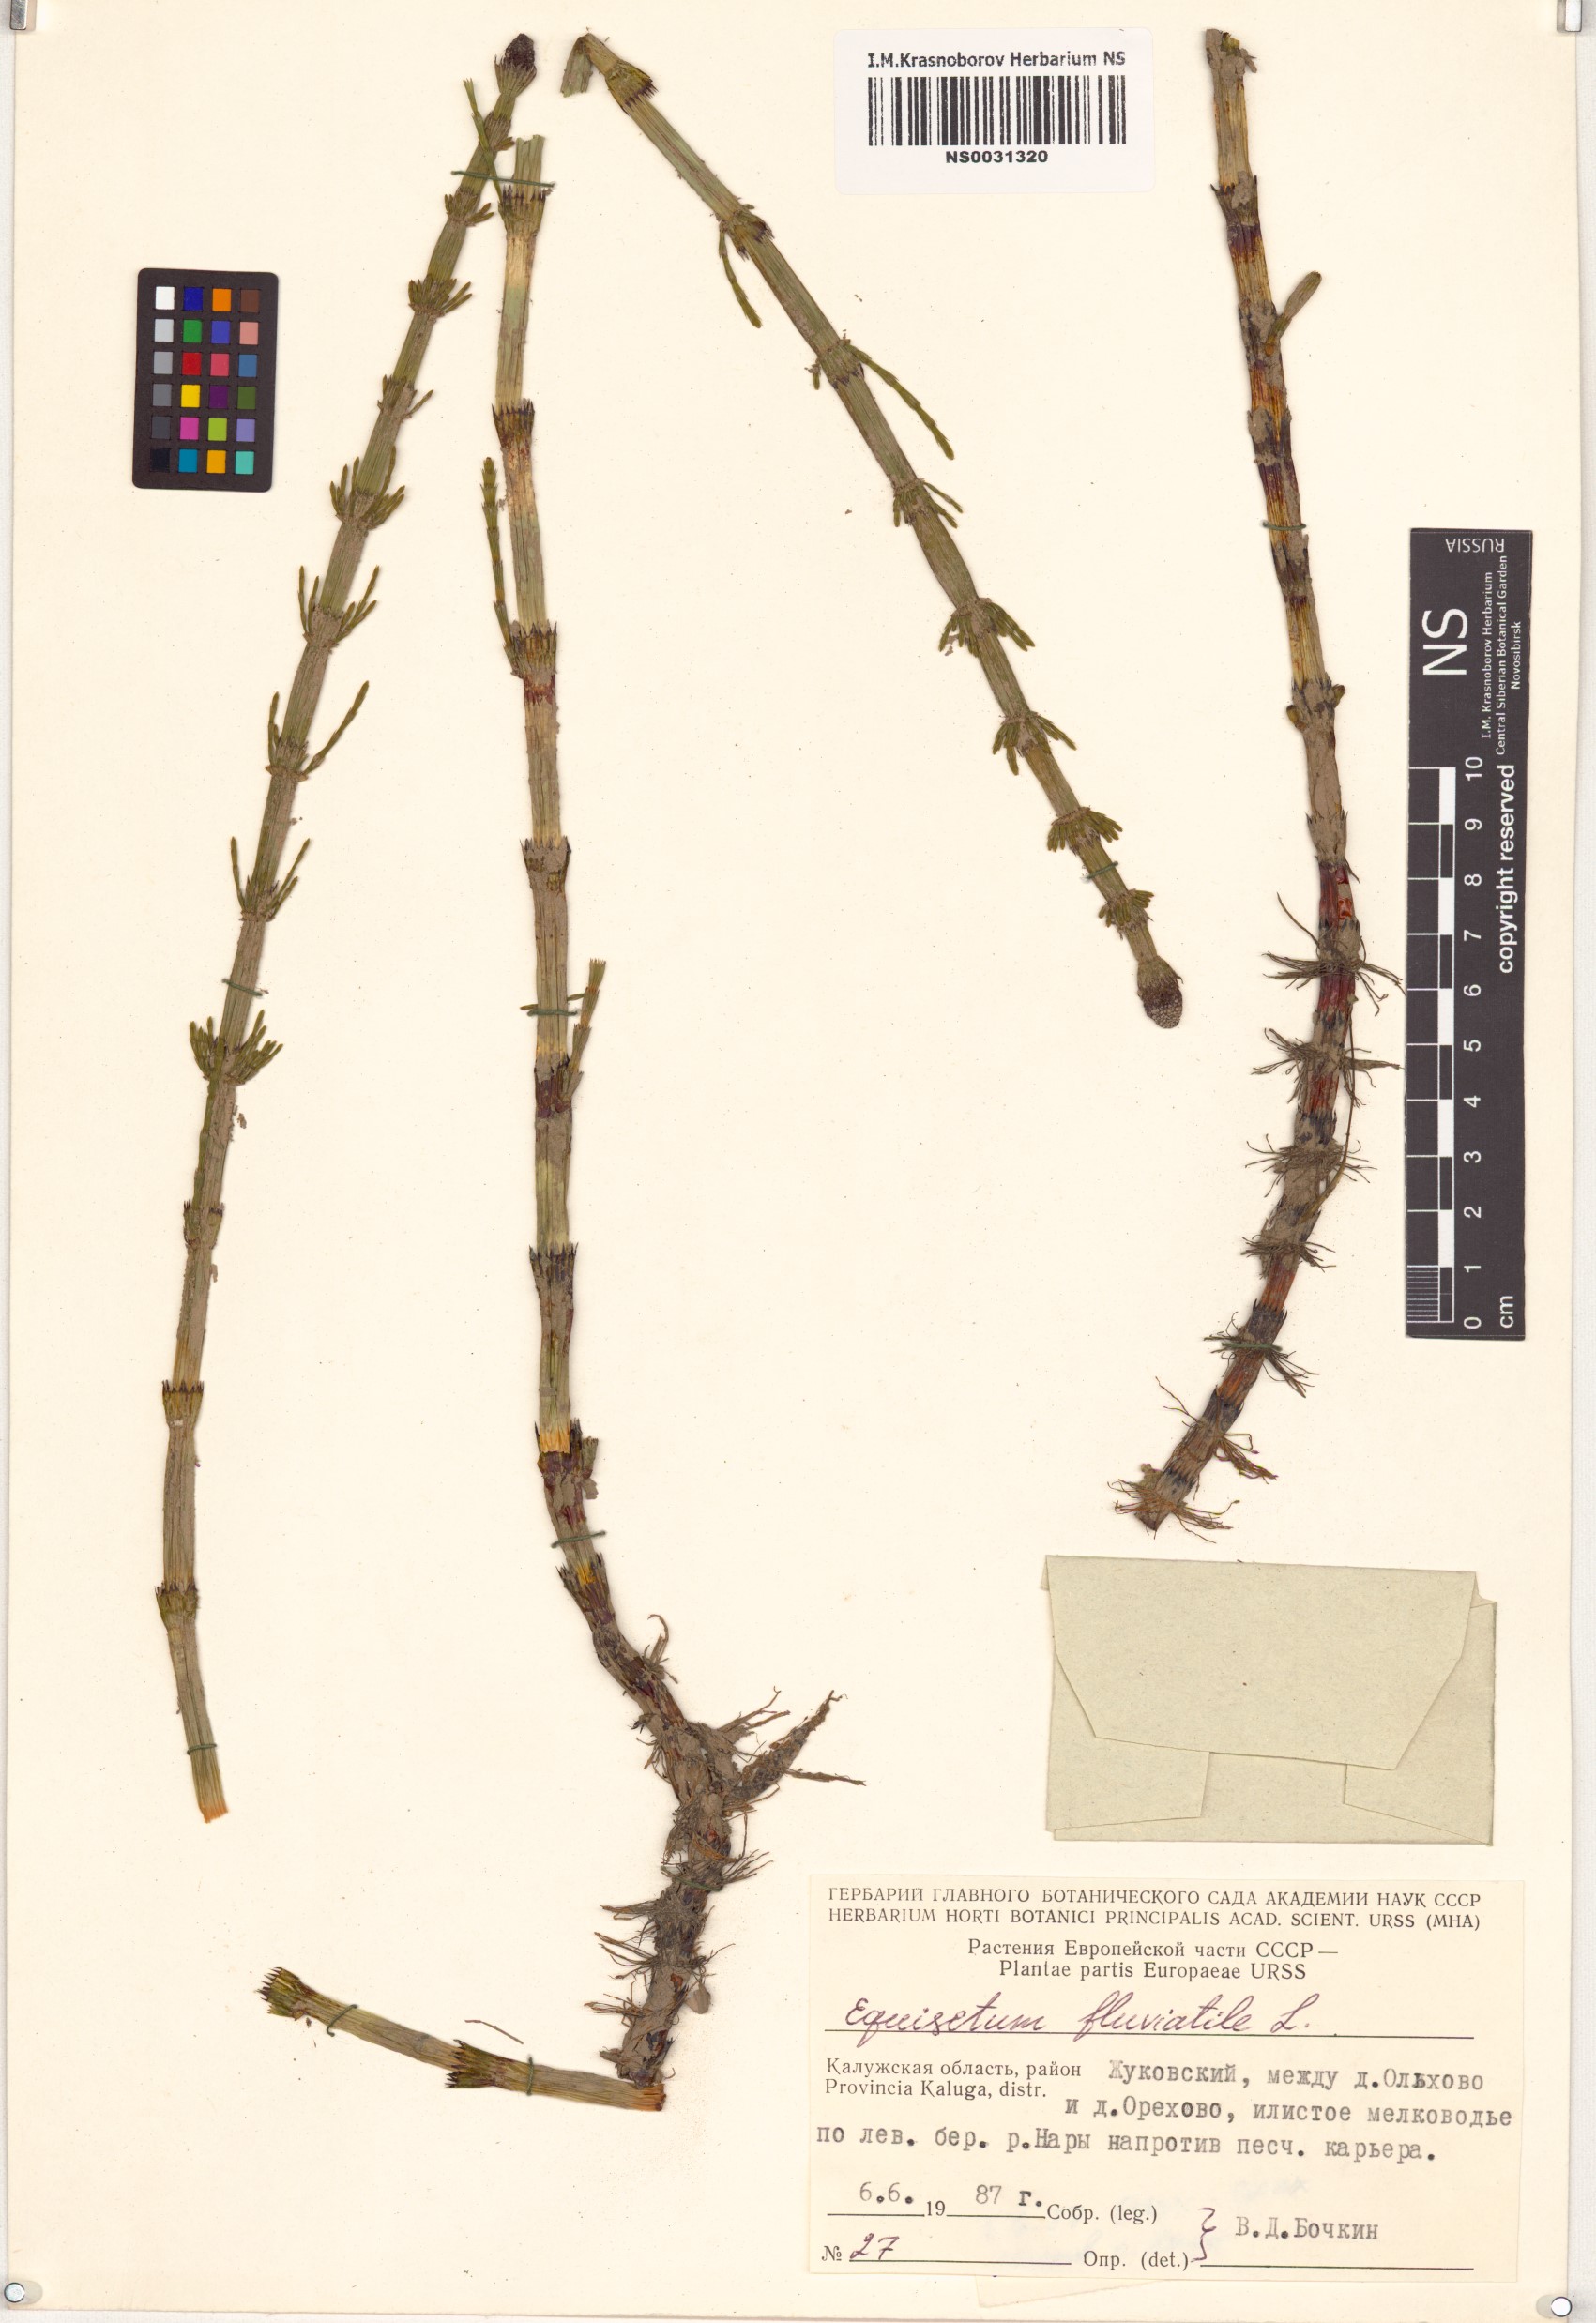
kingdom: Plantae
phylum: Tracheophyta
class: Polypodiopsida
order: Equisetales
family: Equisetaceae
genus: Equisetum
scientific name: Equisetum fluviatile
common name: Water horsetail
